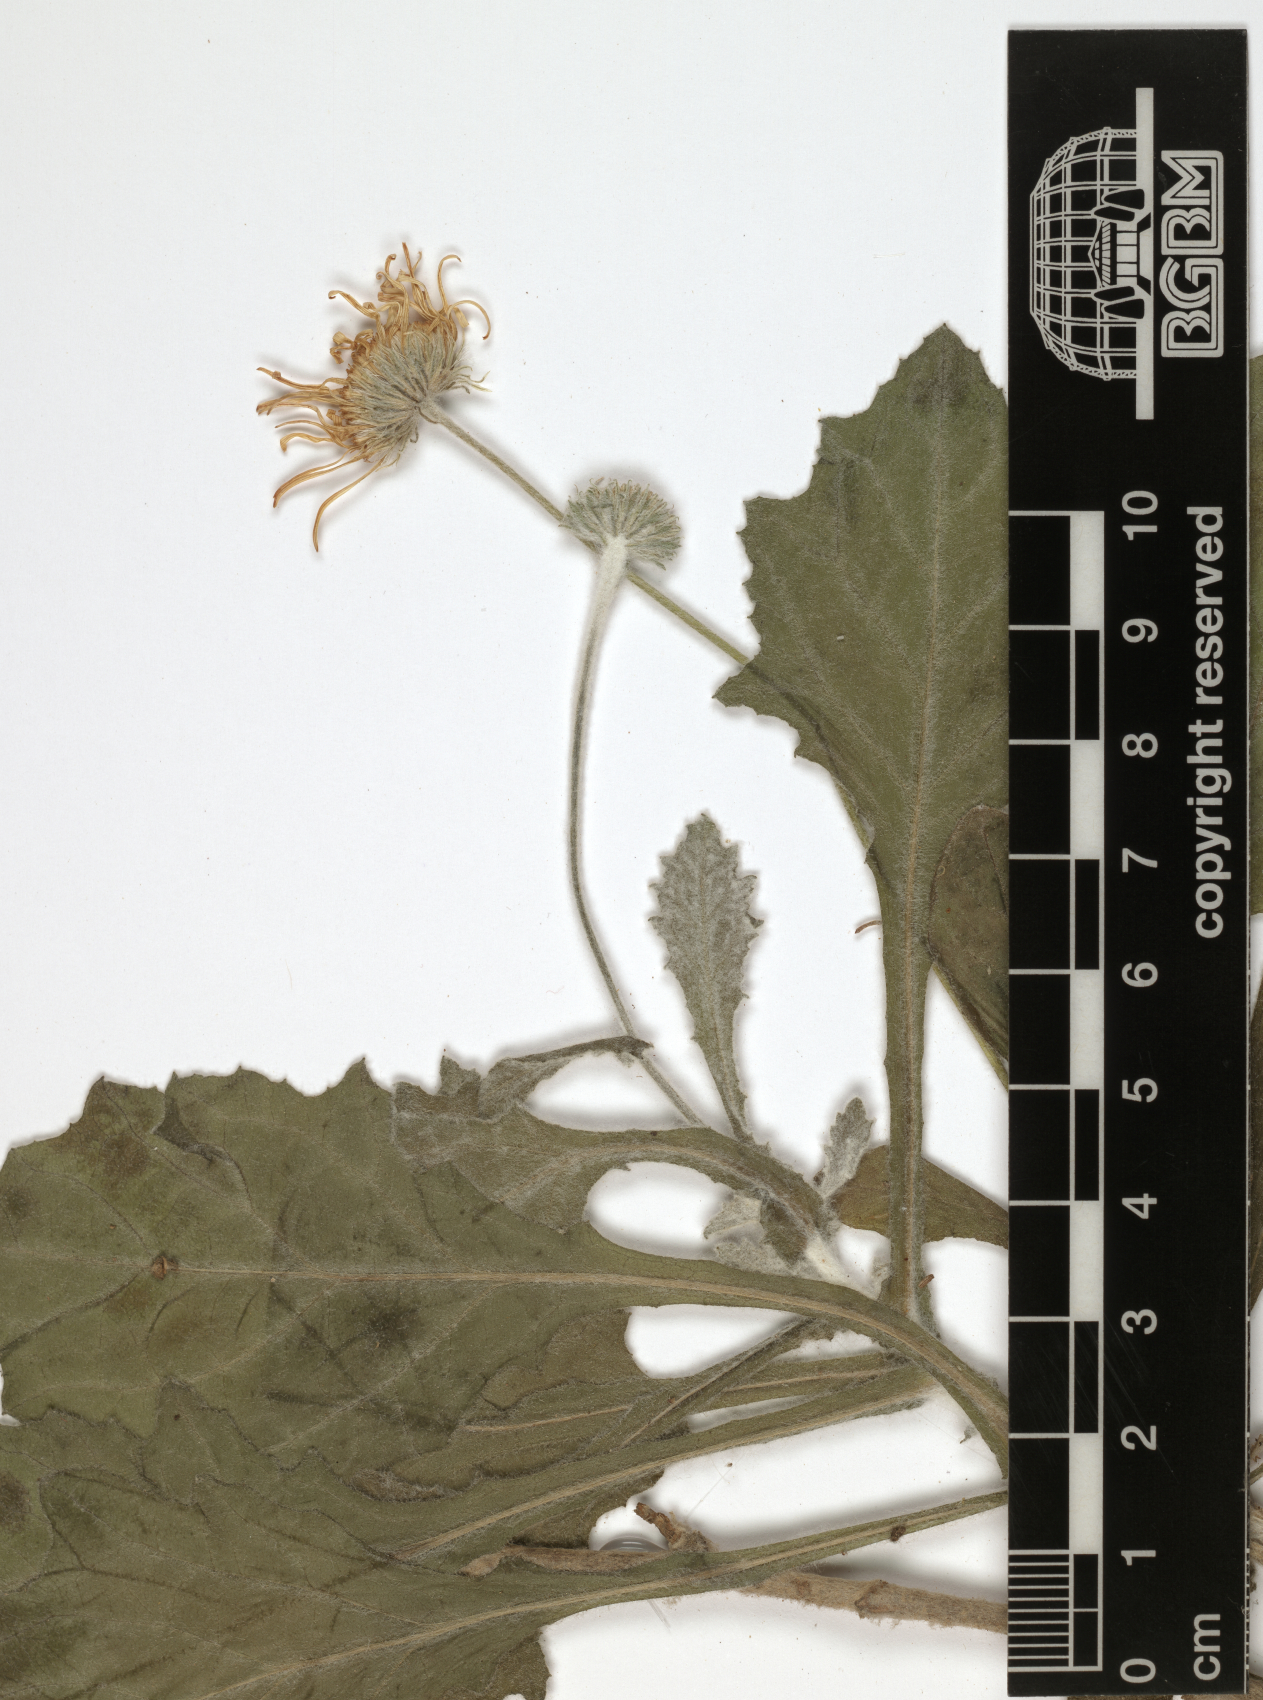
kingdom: Plantae
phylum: Tracheophyta
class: Magnoliopsida
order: Asterales
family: Asteraceae
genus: Pulicaria
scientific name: Pulicaria schimperi
